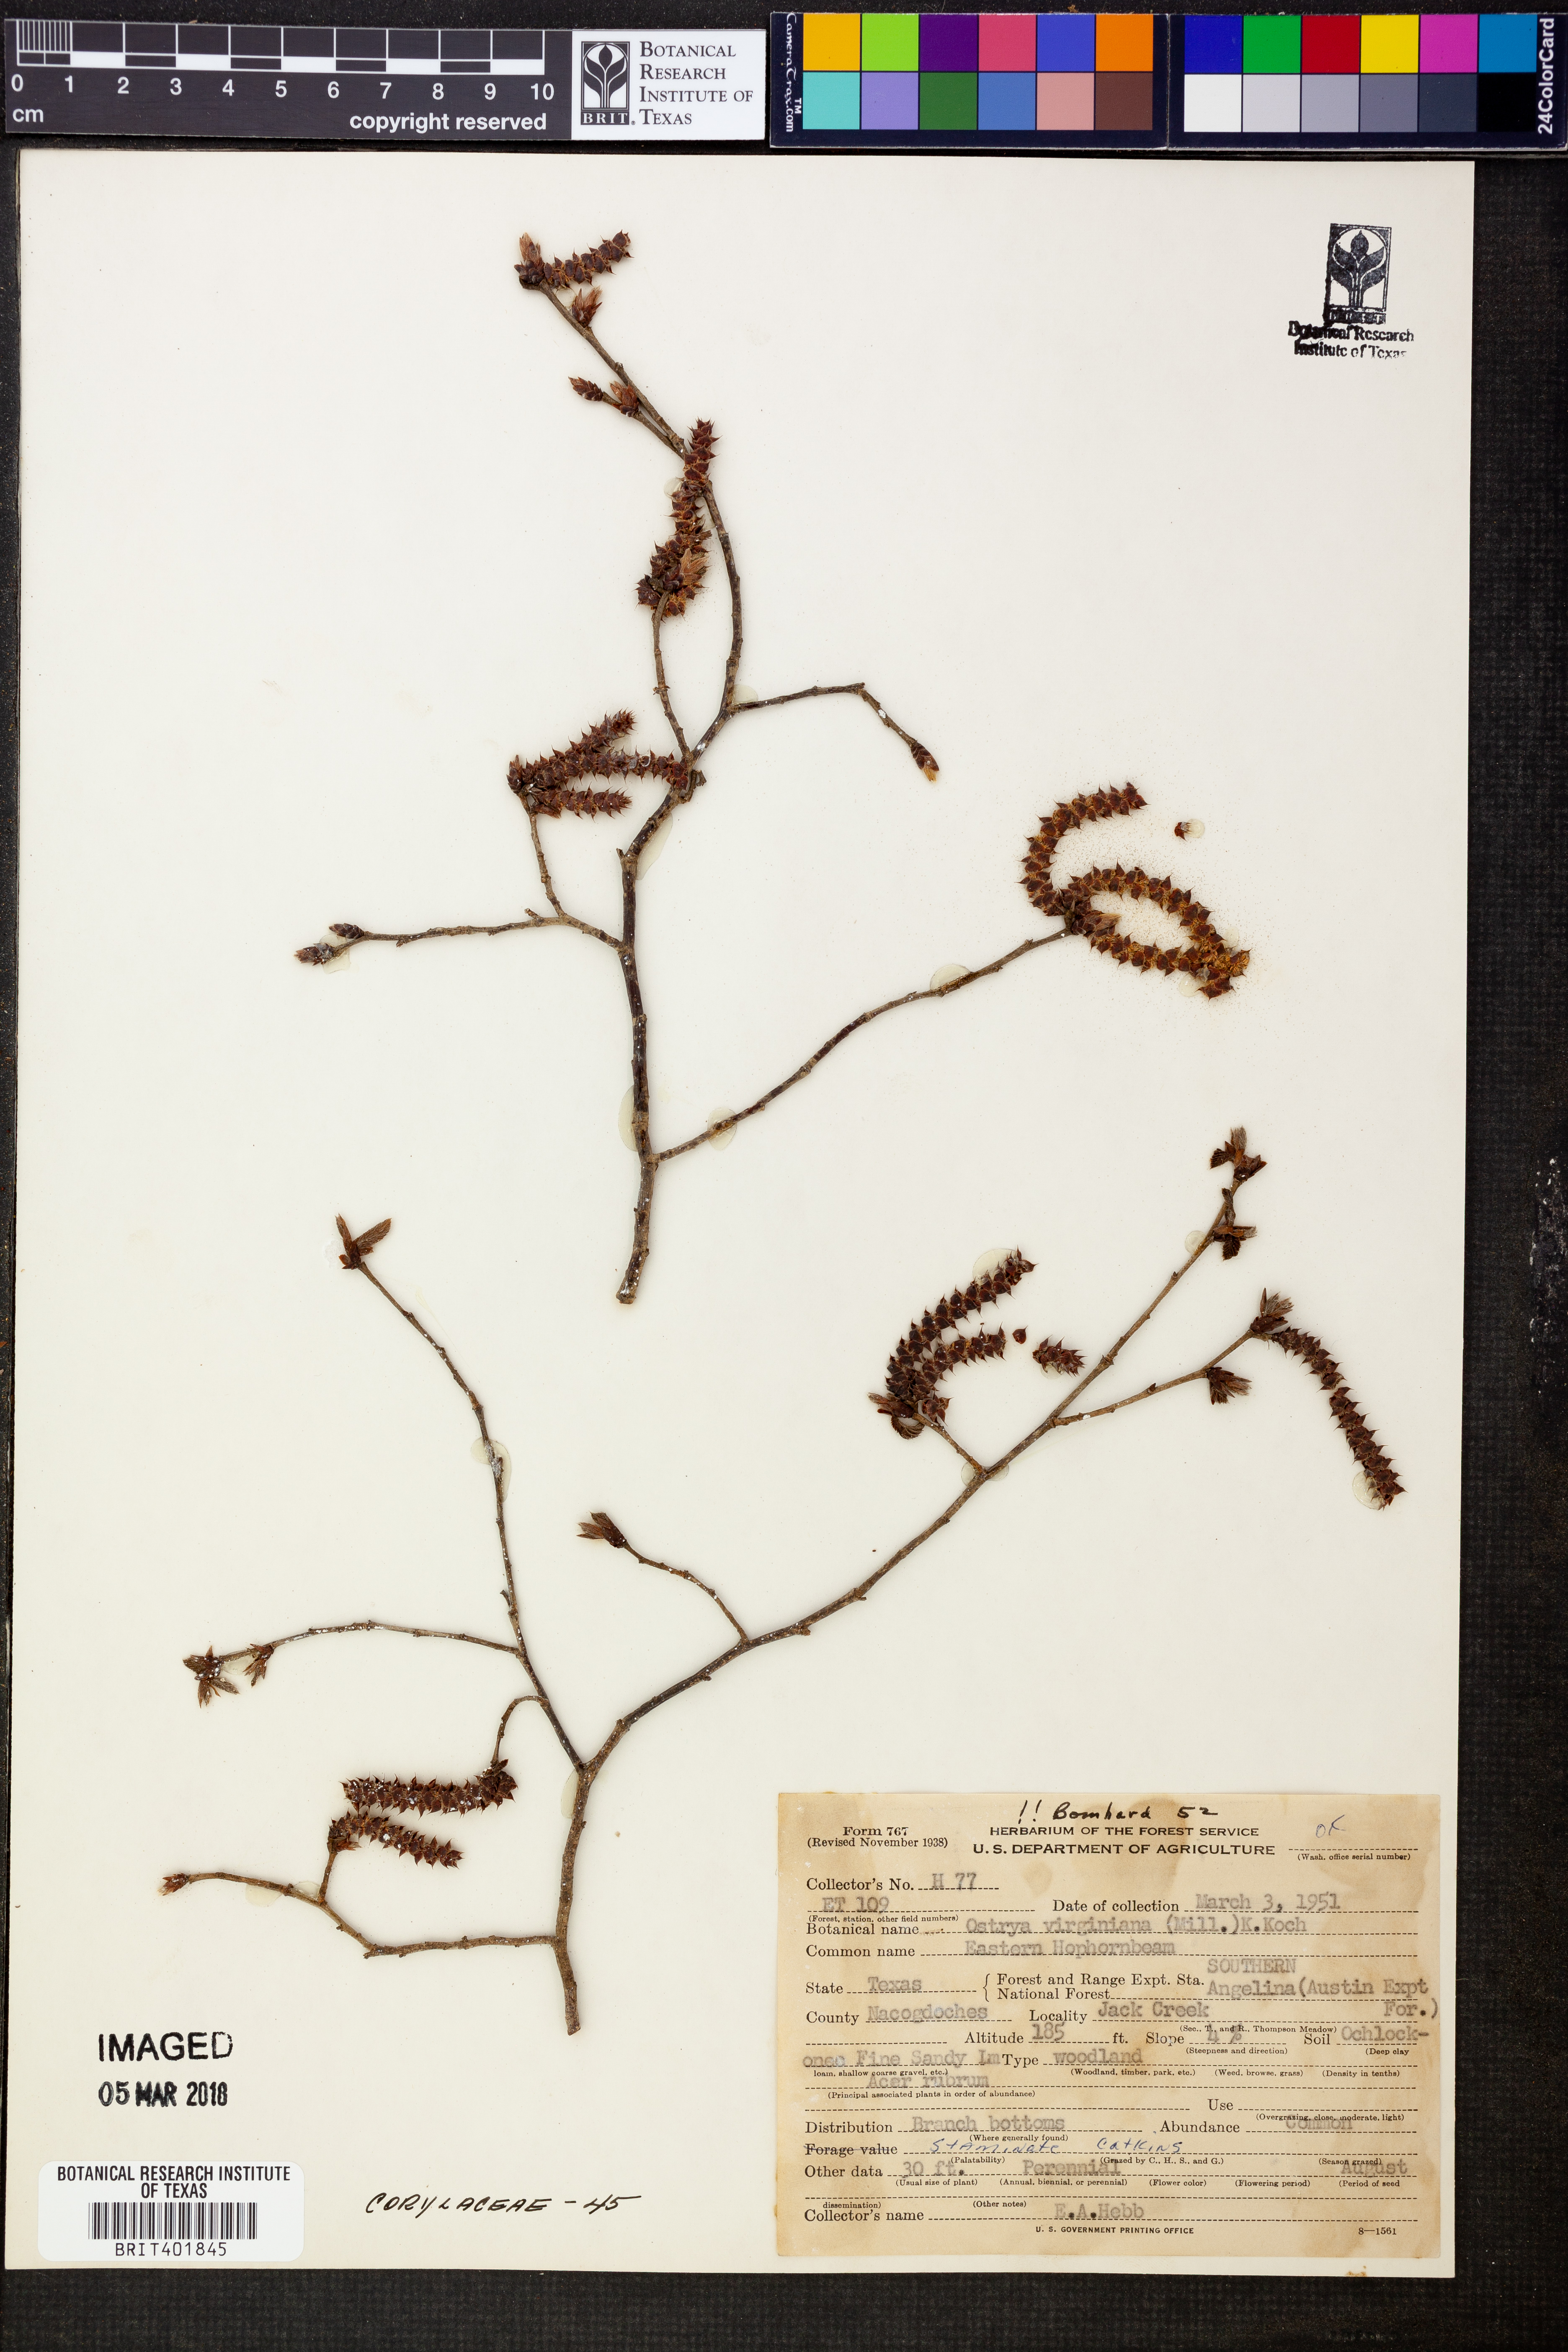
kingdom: Plantae
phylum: Tracheophyta
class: Magnoliopsida
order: Fagales
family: Betulaceae
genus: Ostrya
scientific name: Ostrya virginiana
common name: Ironwood
